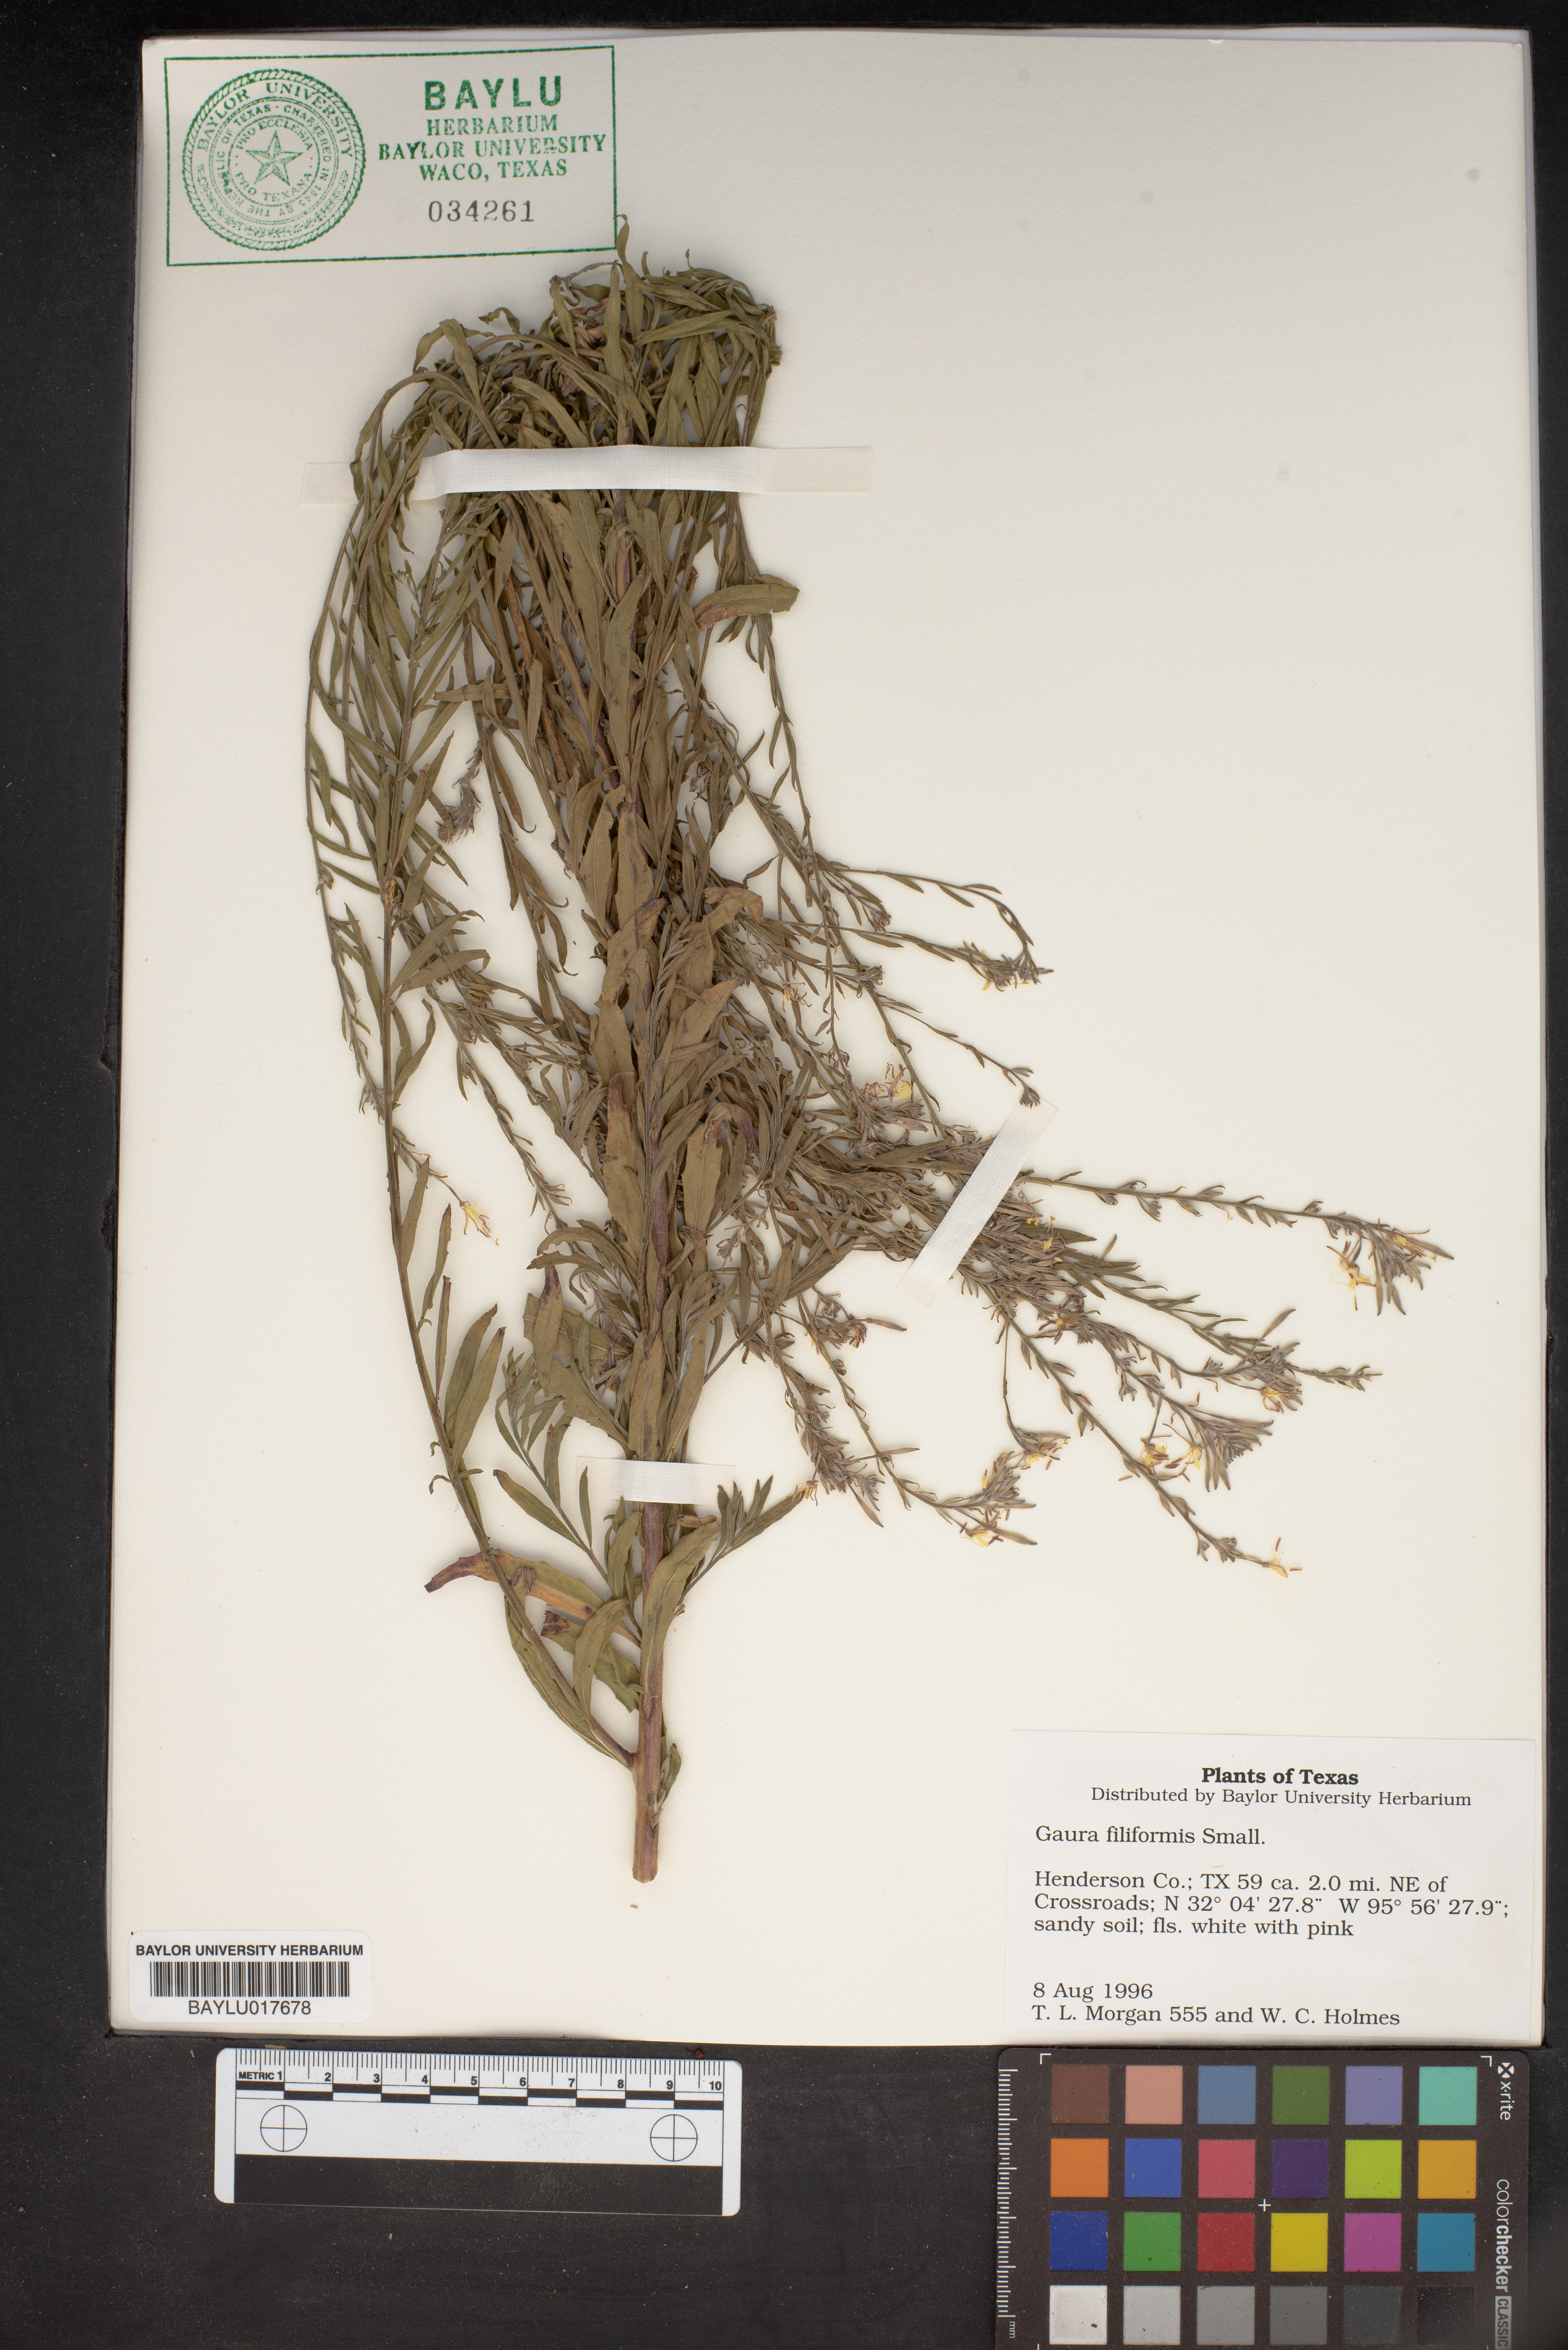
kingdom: Plantae
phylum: Tracheophyta
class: Magnoliopsida
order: Myrtales
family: Onagraceae
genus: Oenothera
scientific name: Oenothera filiformis
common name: Longflower beeblossom
